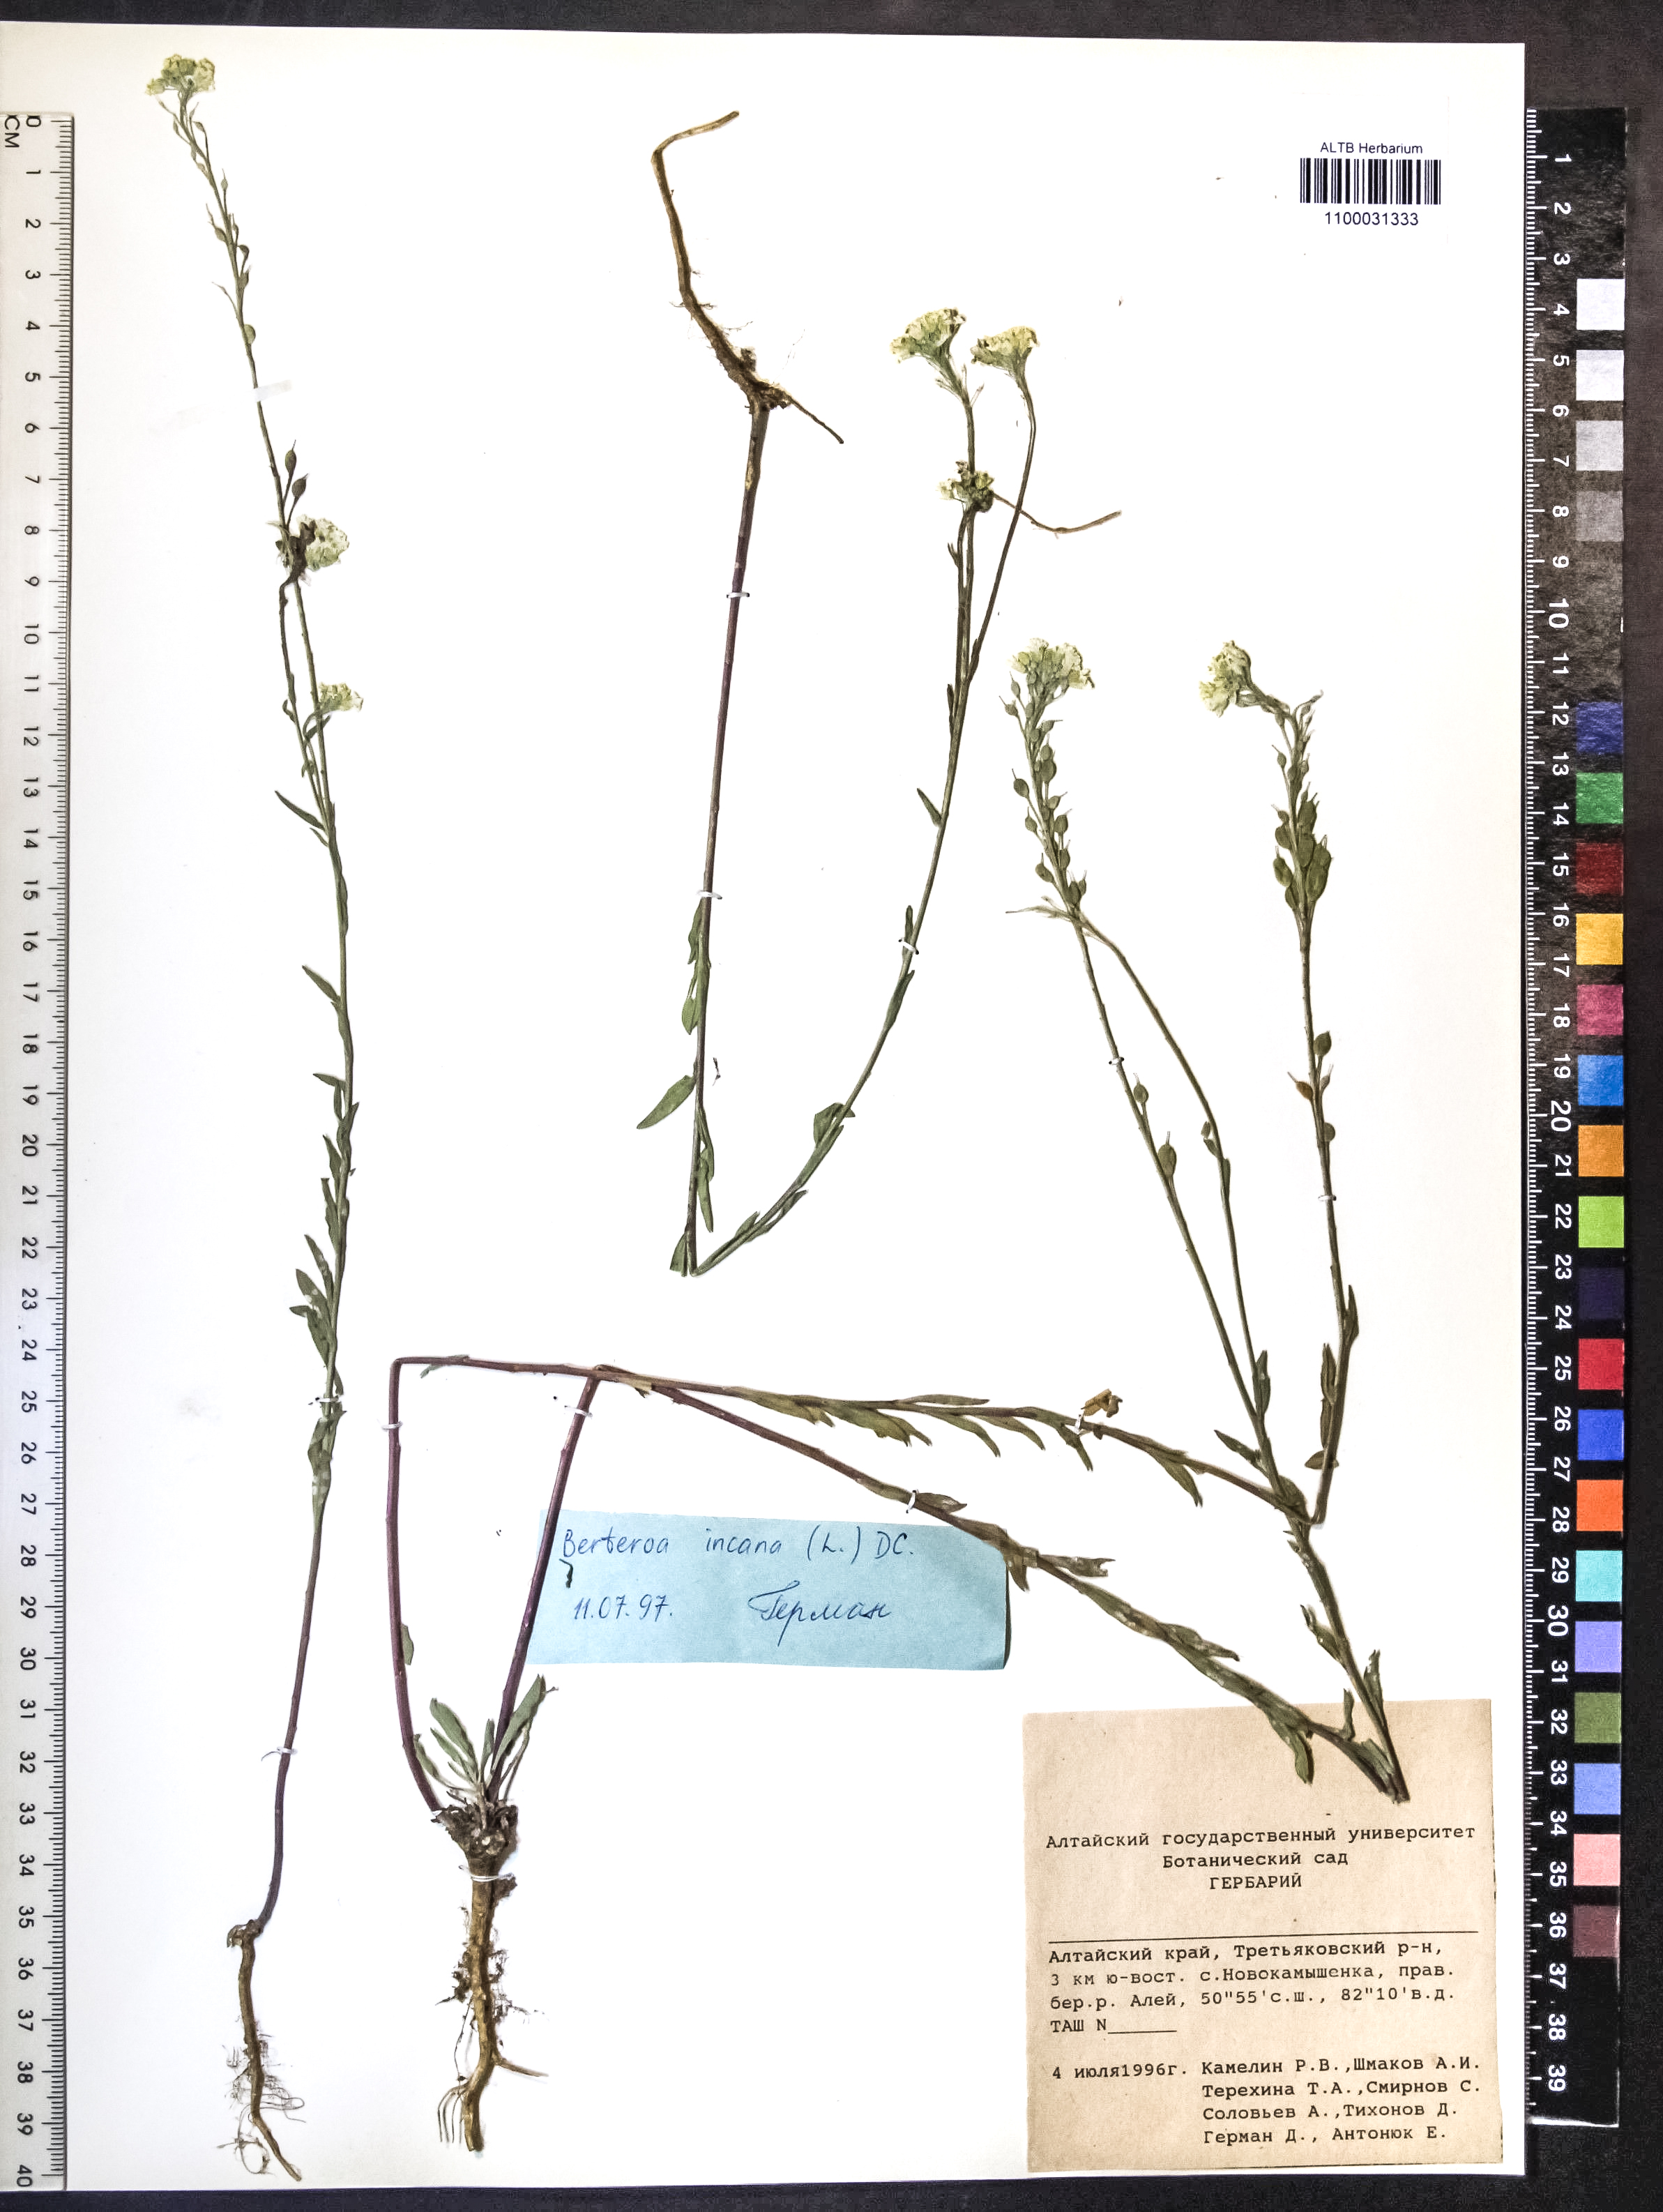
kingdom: Plantae
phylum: Tracheophyta
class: Magnoliopsida
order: Brassicales
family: Brassicaceae
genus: Berteroa
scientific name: Berteroa incana
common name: Hoary alison
